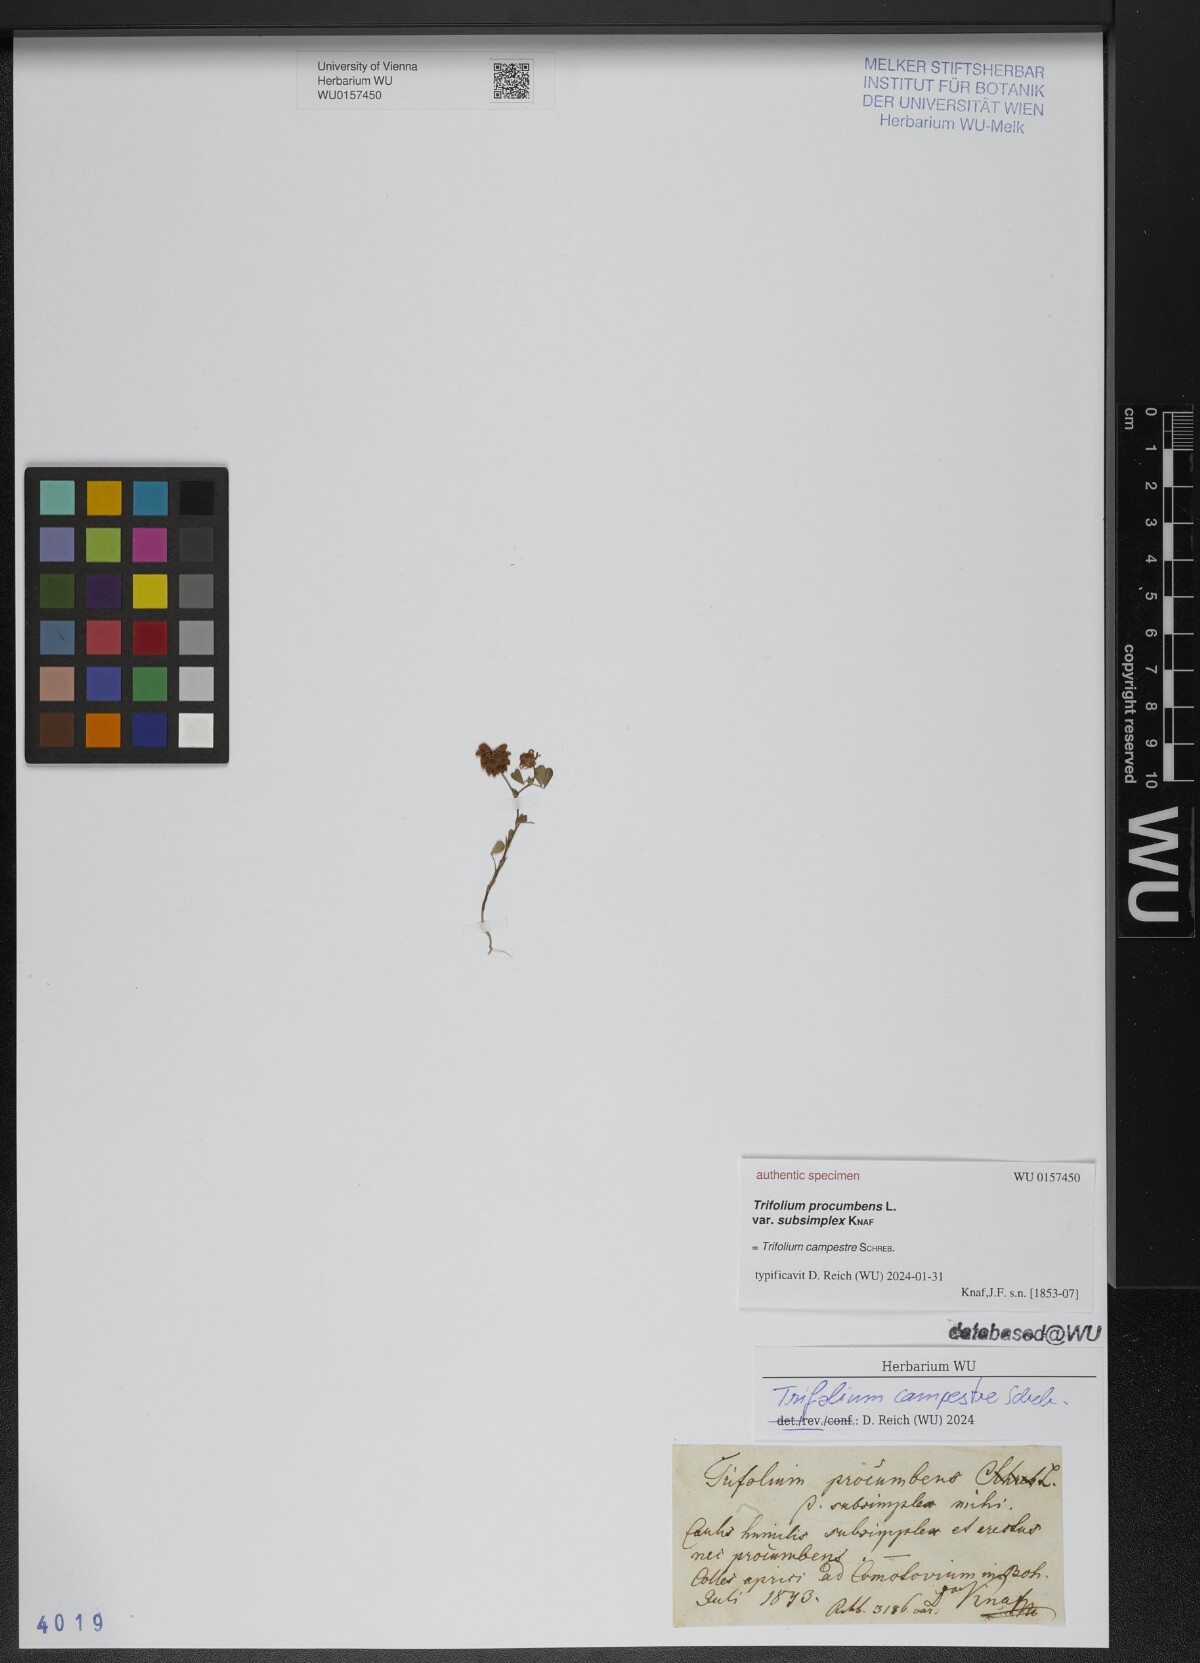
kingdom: Plantae
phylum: Tracheophyta
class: Magnoliopsida
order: Fabales
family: Fabaceae
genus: Trifolium
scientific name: Trifolium
